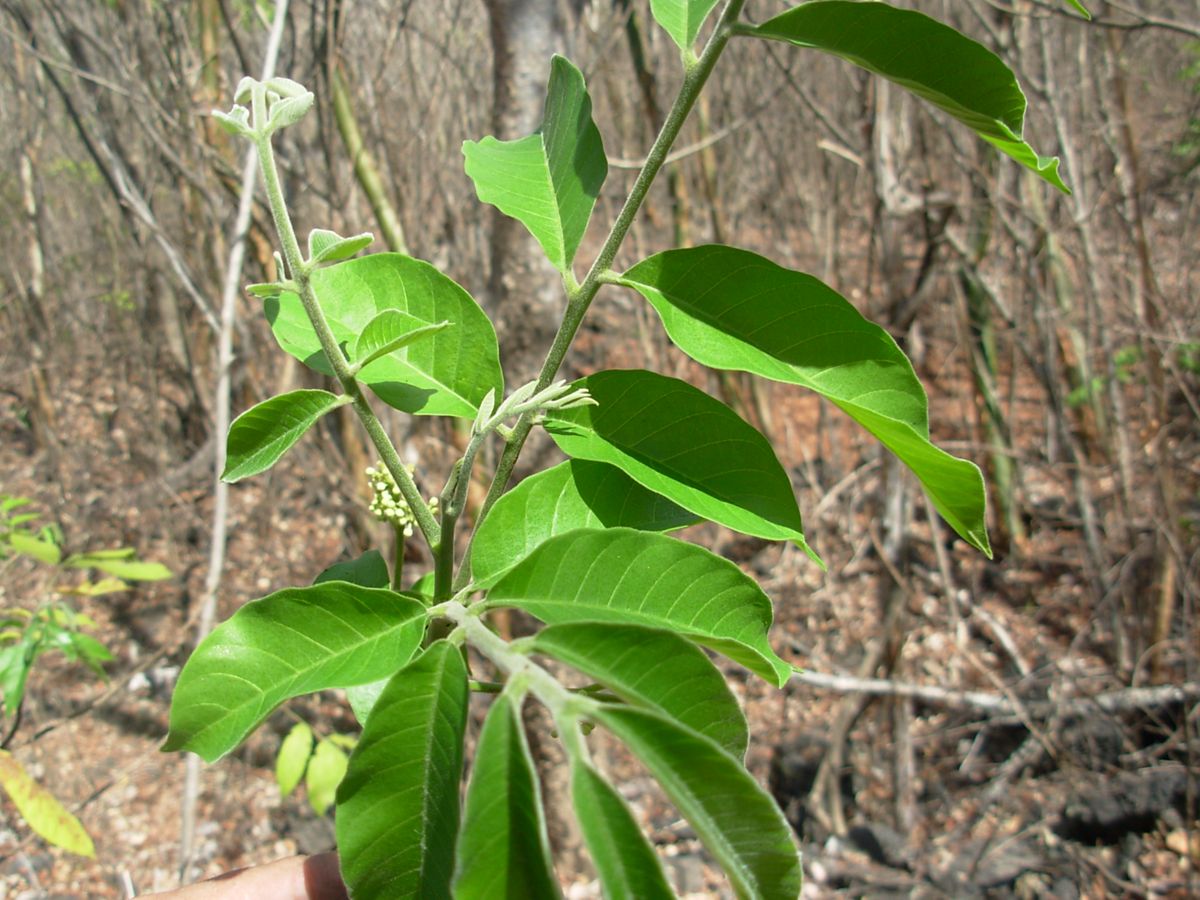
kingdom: Plantae
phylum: Tracheophyta
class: Magnoliopsida
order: Sapindales
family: Meliaceae
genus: Trichilia
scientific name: Trichilia martiana
